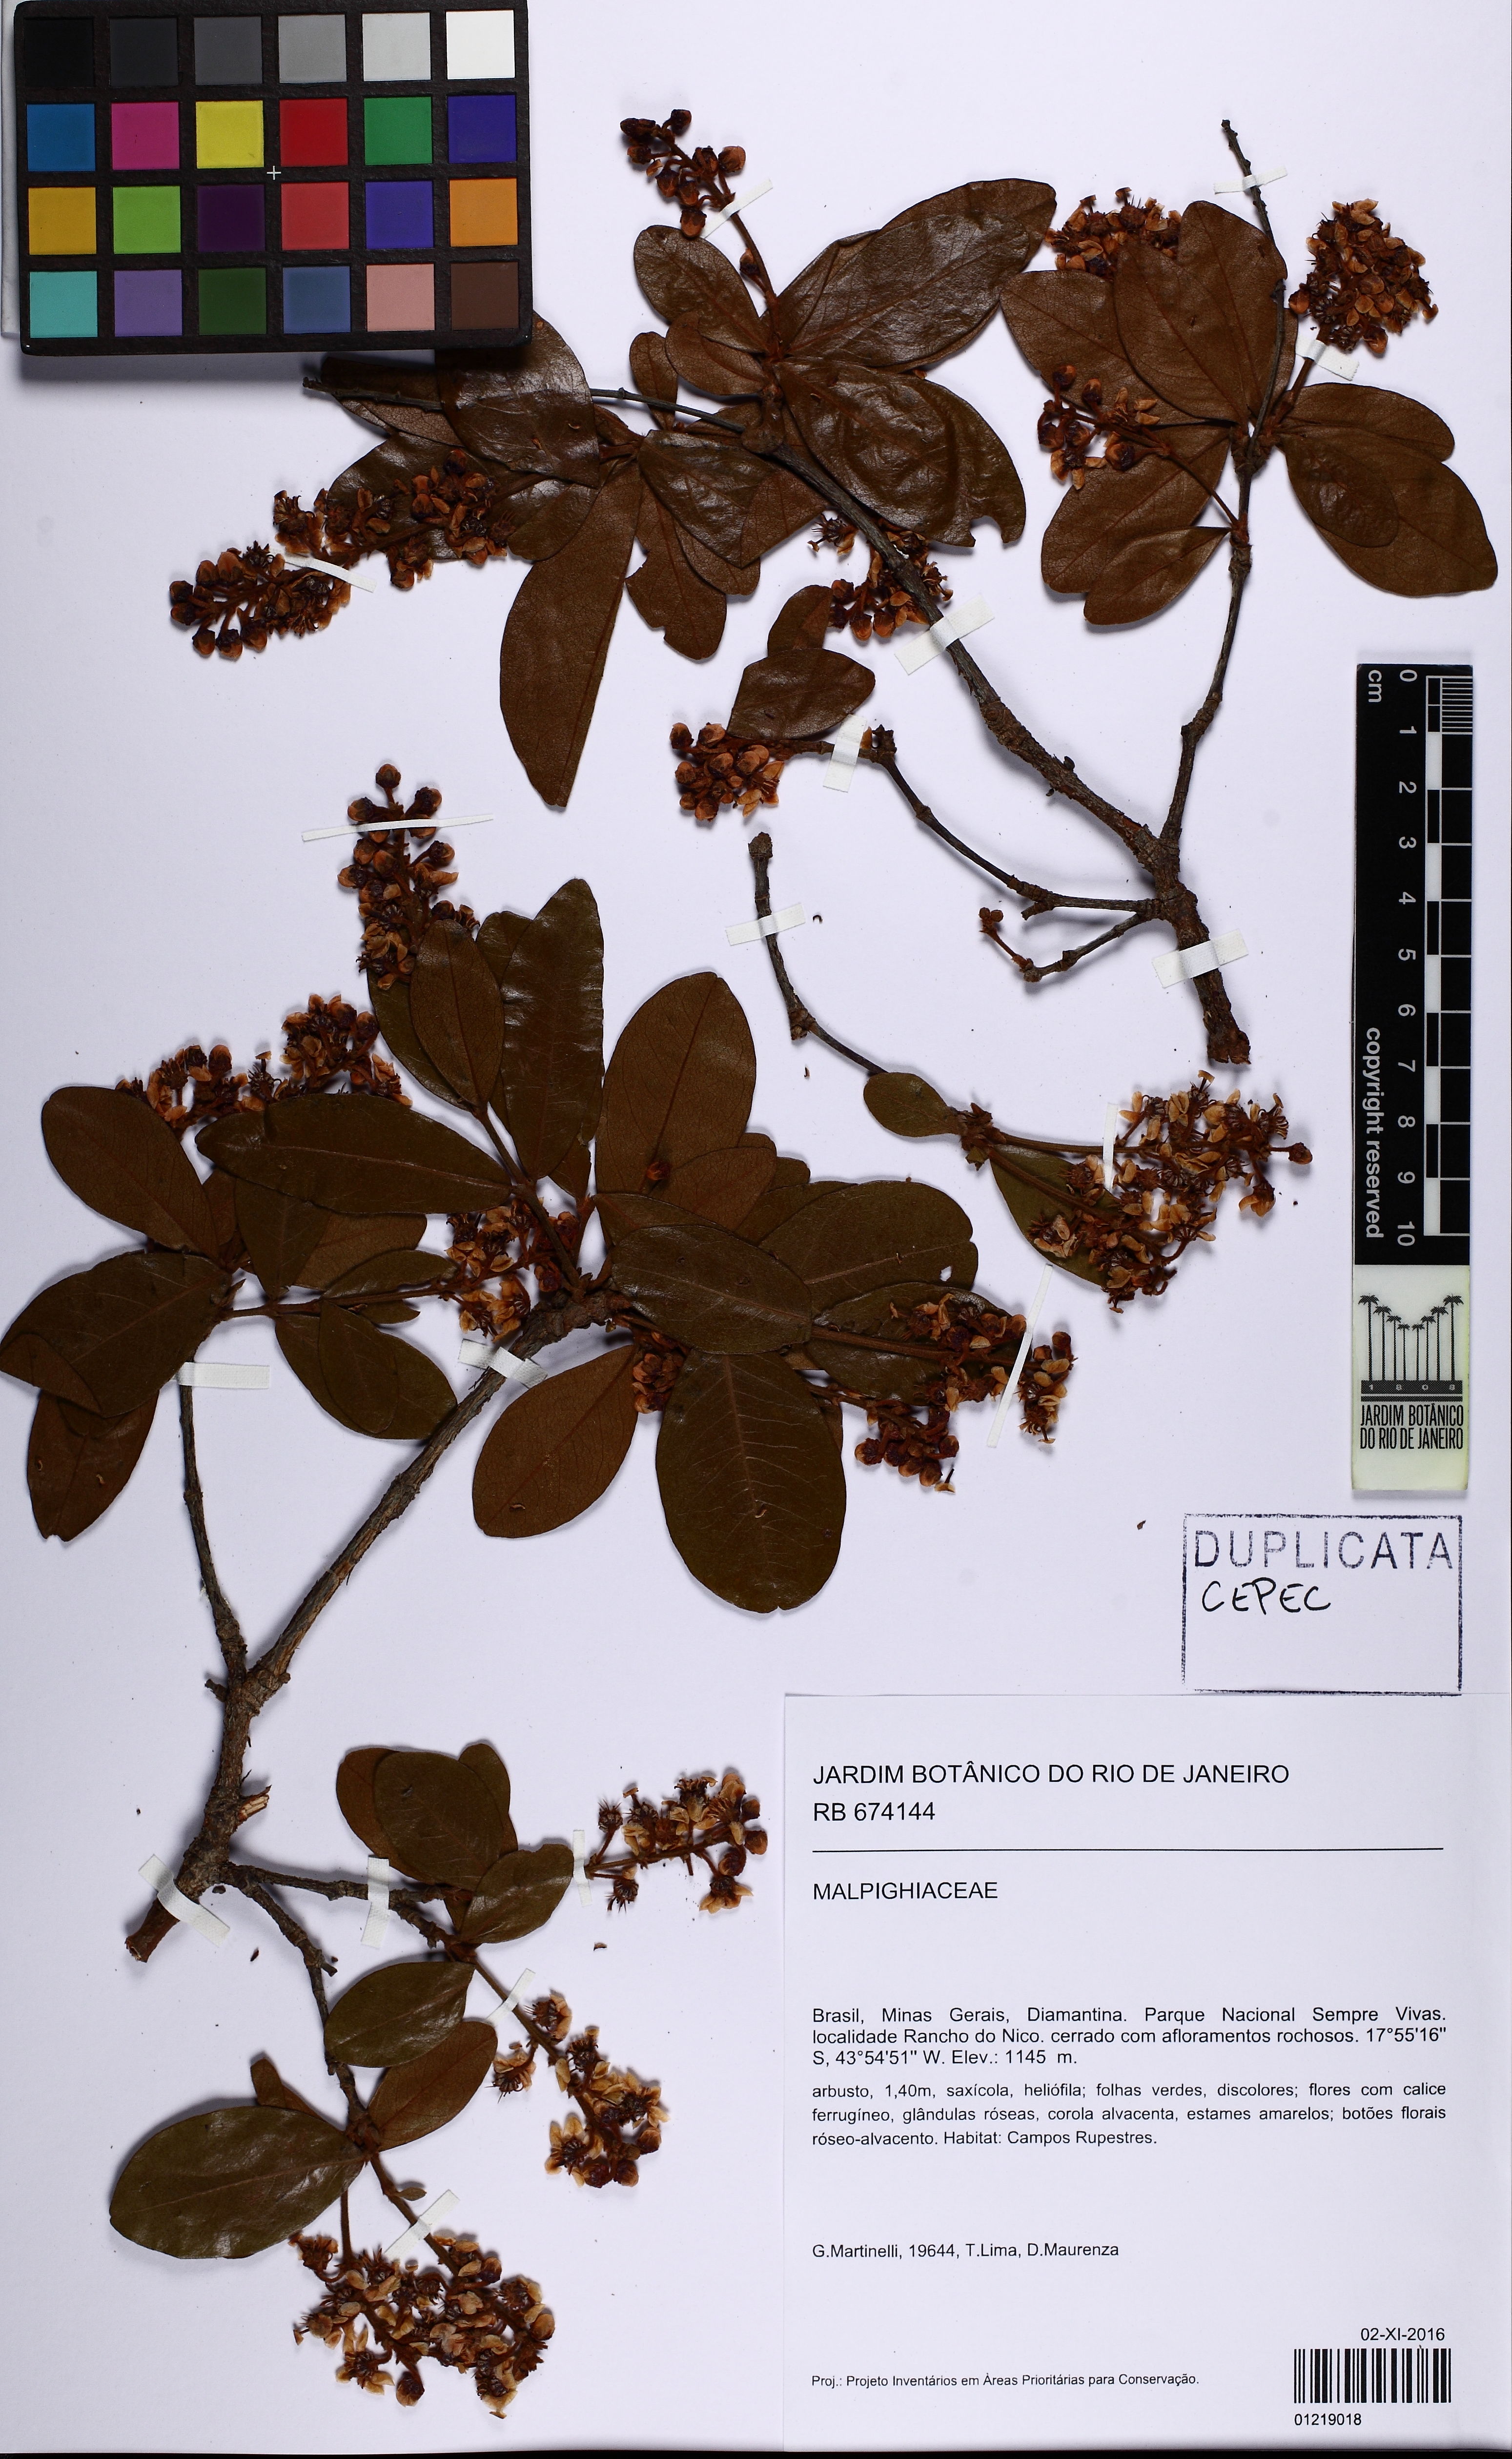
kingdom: Plantae
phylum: Tracheophyta
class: Magnoliopsida
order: Malpighiales
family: Malpighiaceae
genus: Byrsonima
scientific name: Byrsonima
